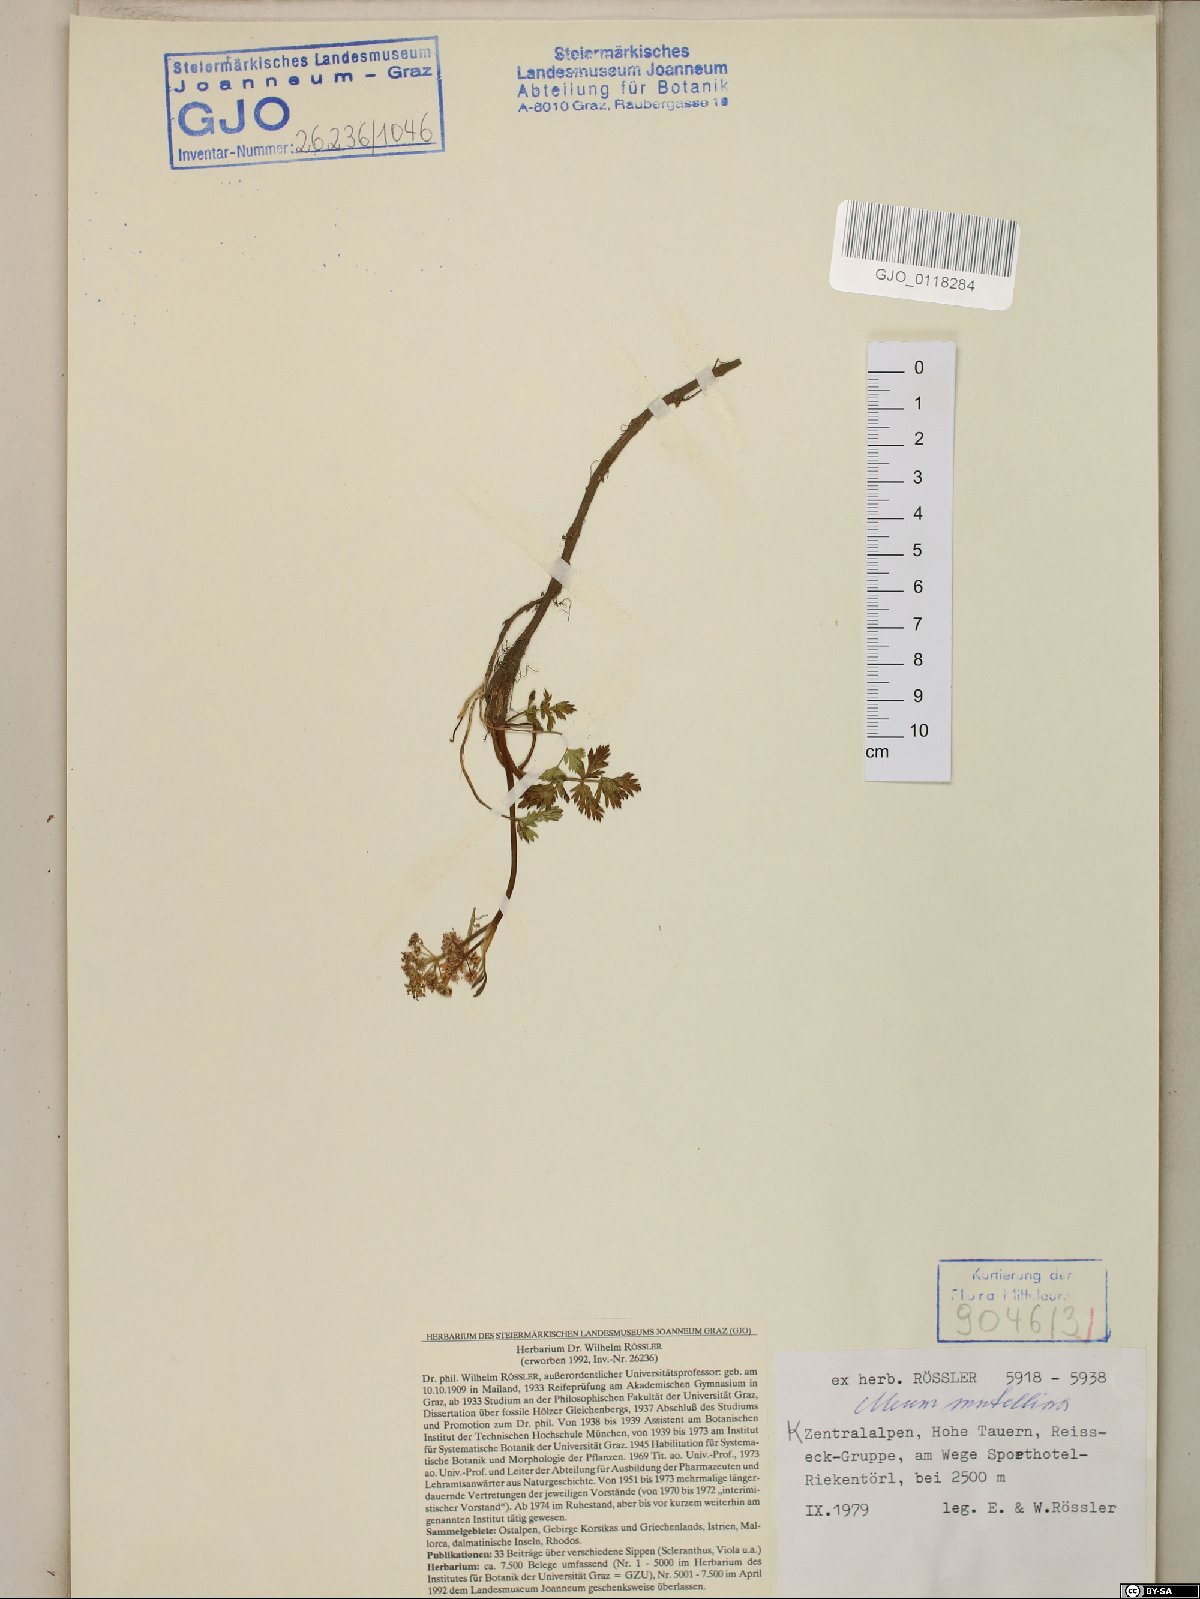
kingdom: Plantae
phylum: Tracheophyta
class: Magnoliopsida
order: Apiales
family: Apiaceae
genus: Mutellina
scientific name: Mutellina adonidifolia
